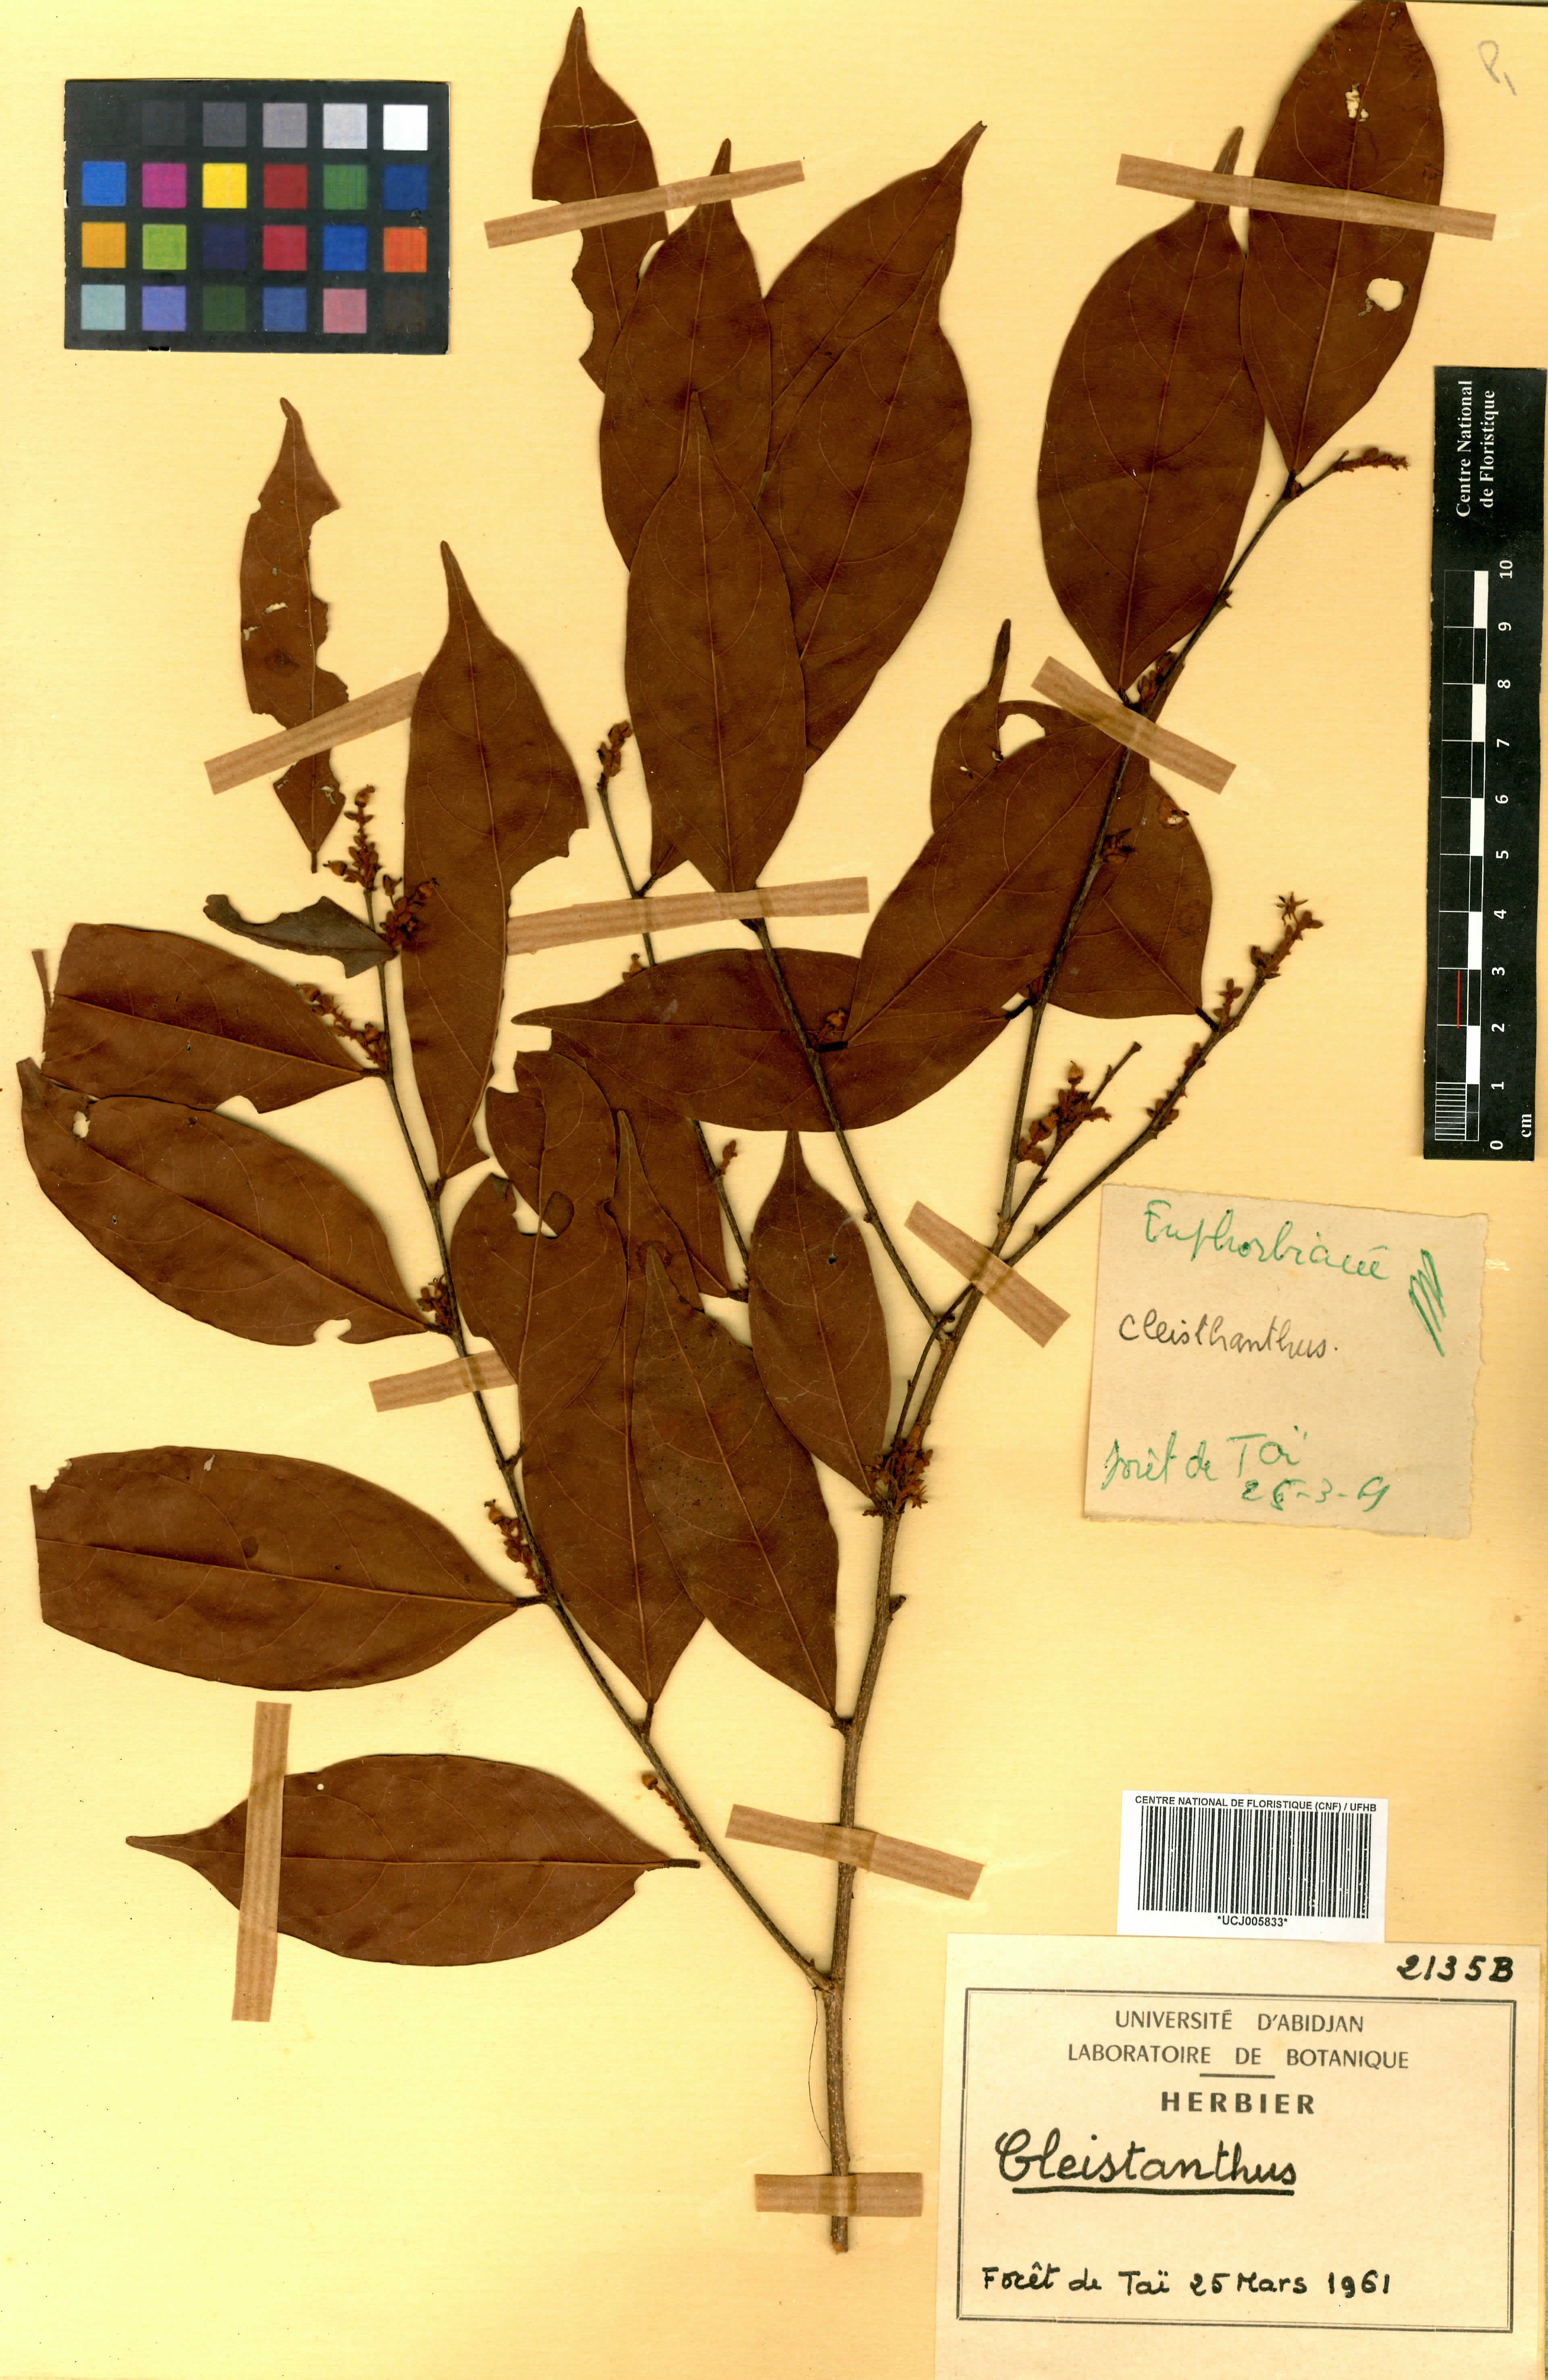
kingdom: Plantae
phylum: Tracheophyta
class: Magnoliopsida
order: Malpighiales
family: Phyllanthaceae
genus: Cleistanthus
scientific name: Cleistanthus libericus
